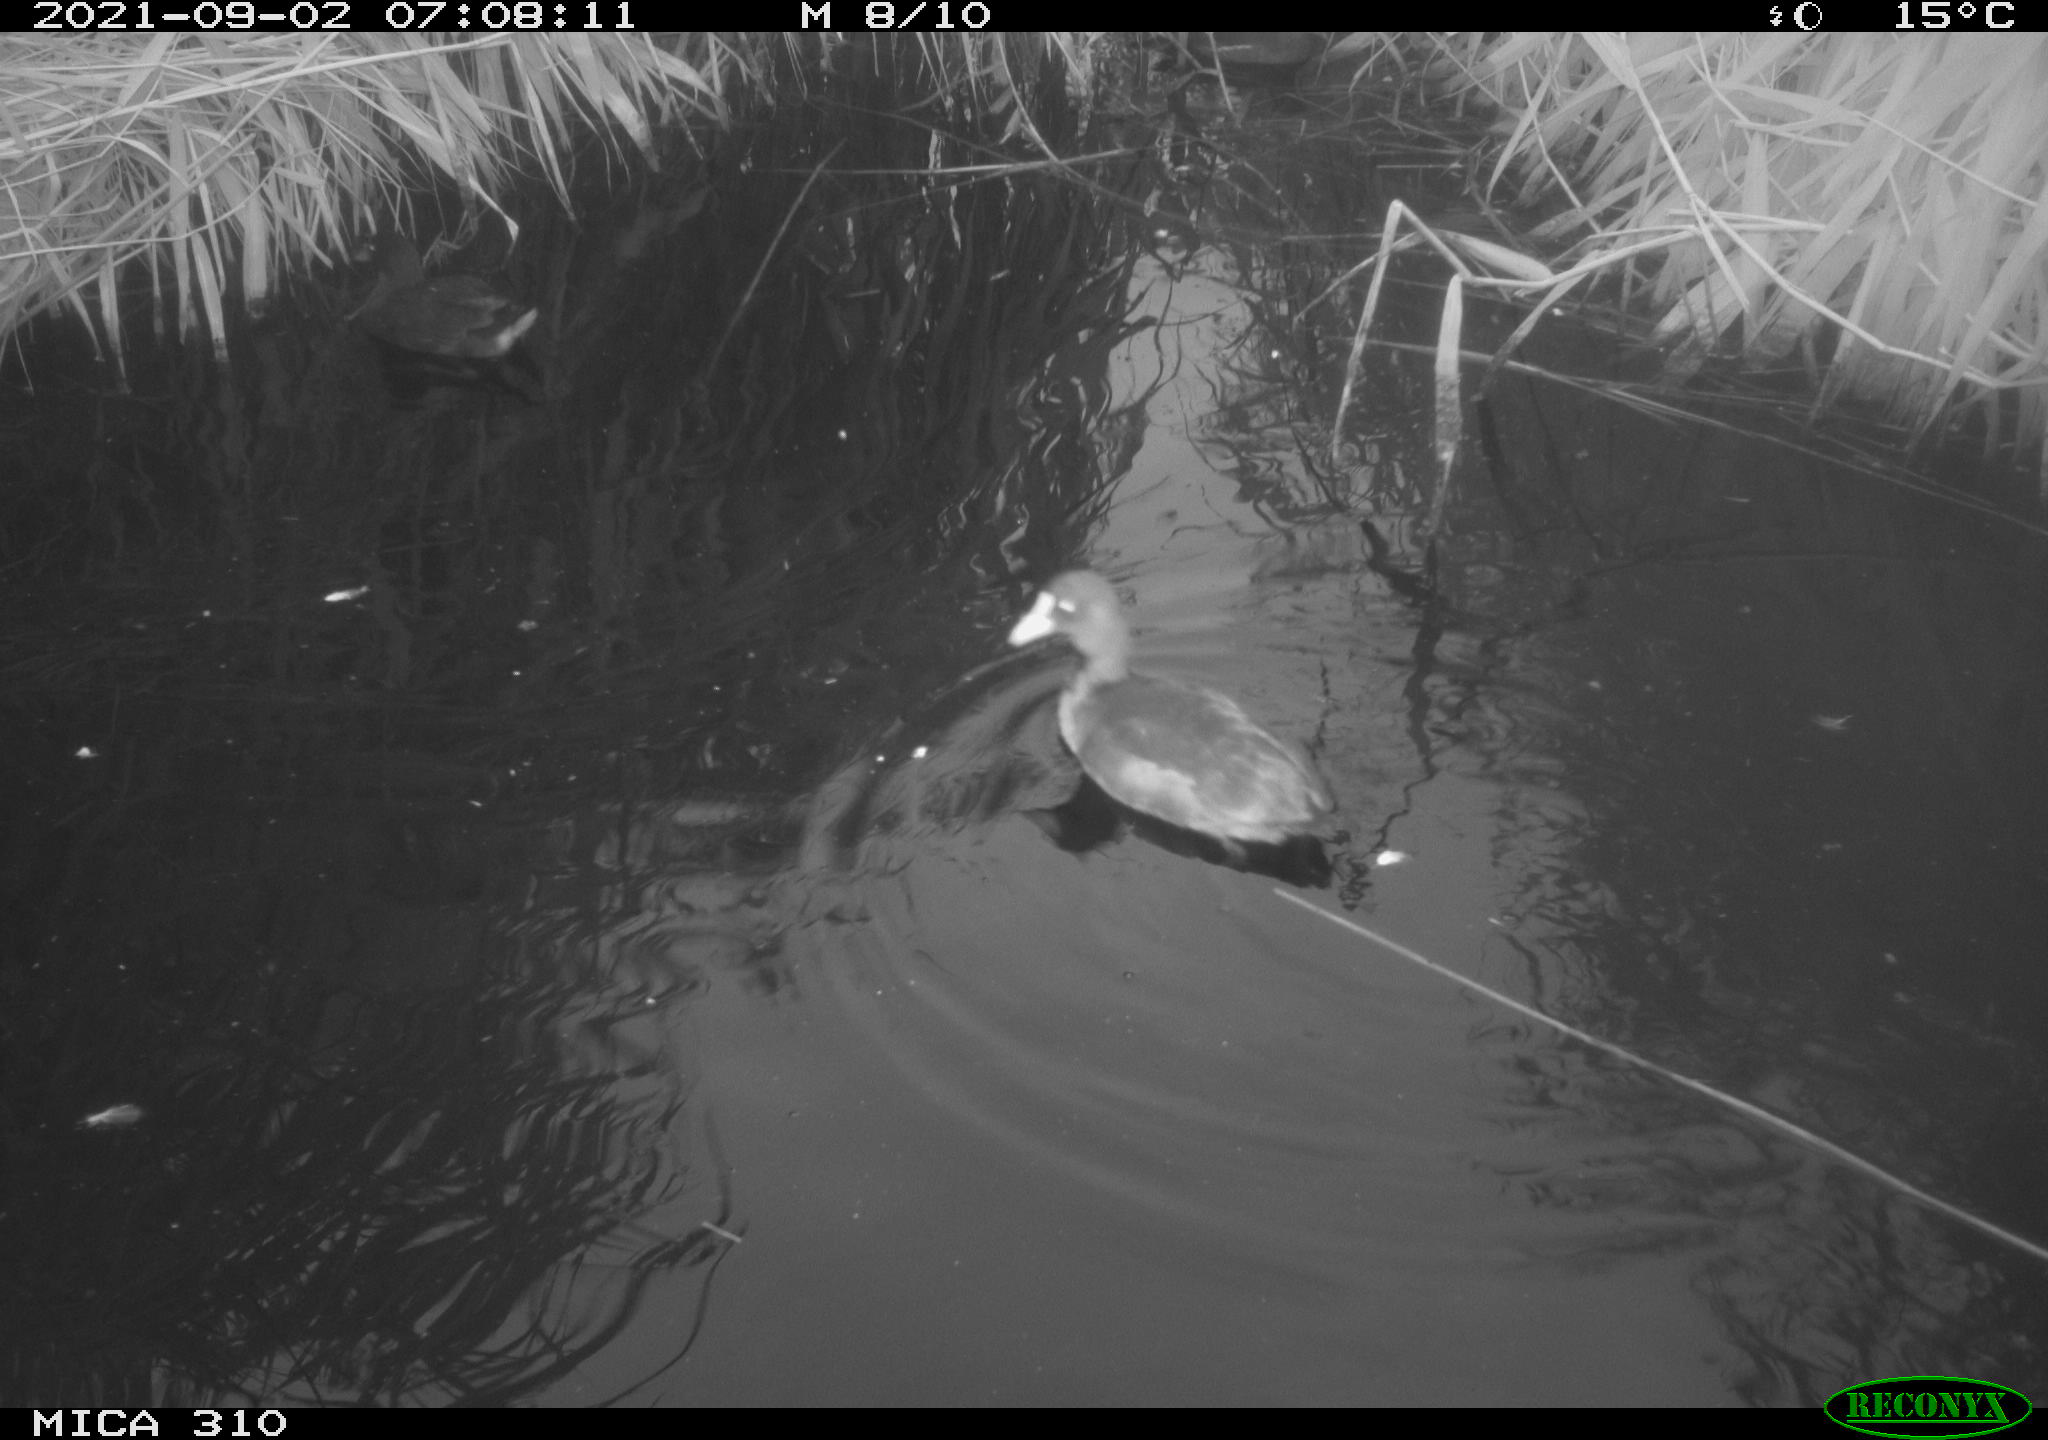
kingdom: Animalia
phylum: Chordata
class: Aves
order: Gruiformes
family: Rallidae
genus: Fulica
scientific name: Fulica atra
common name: Eurasian coot
